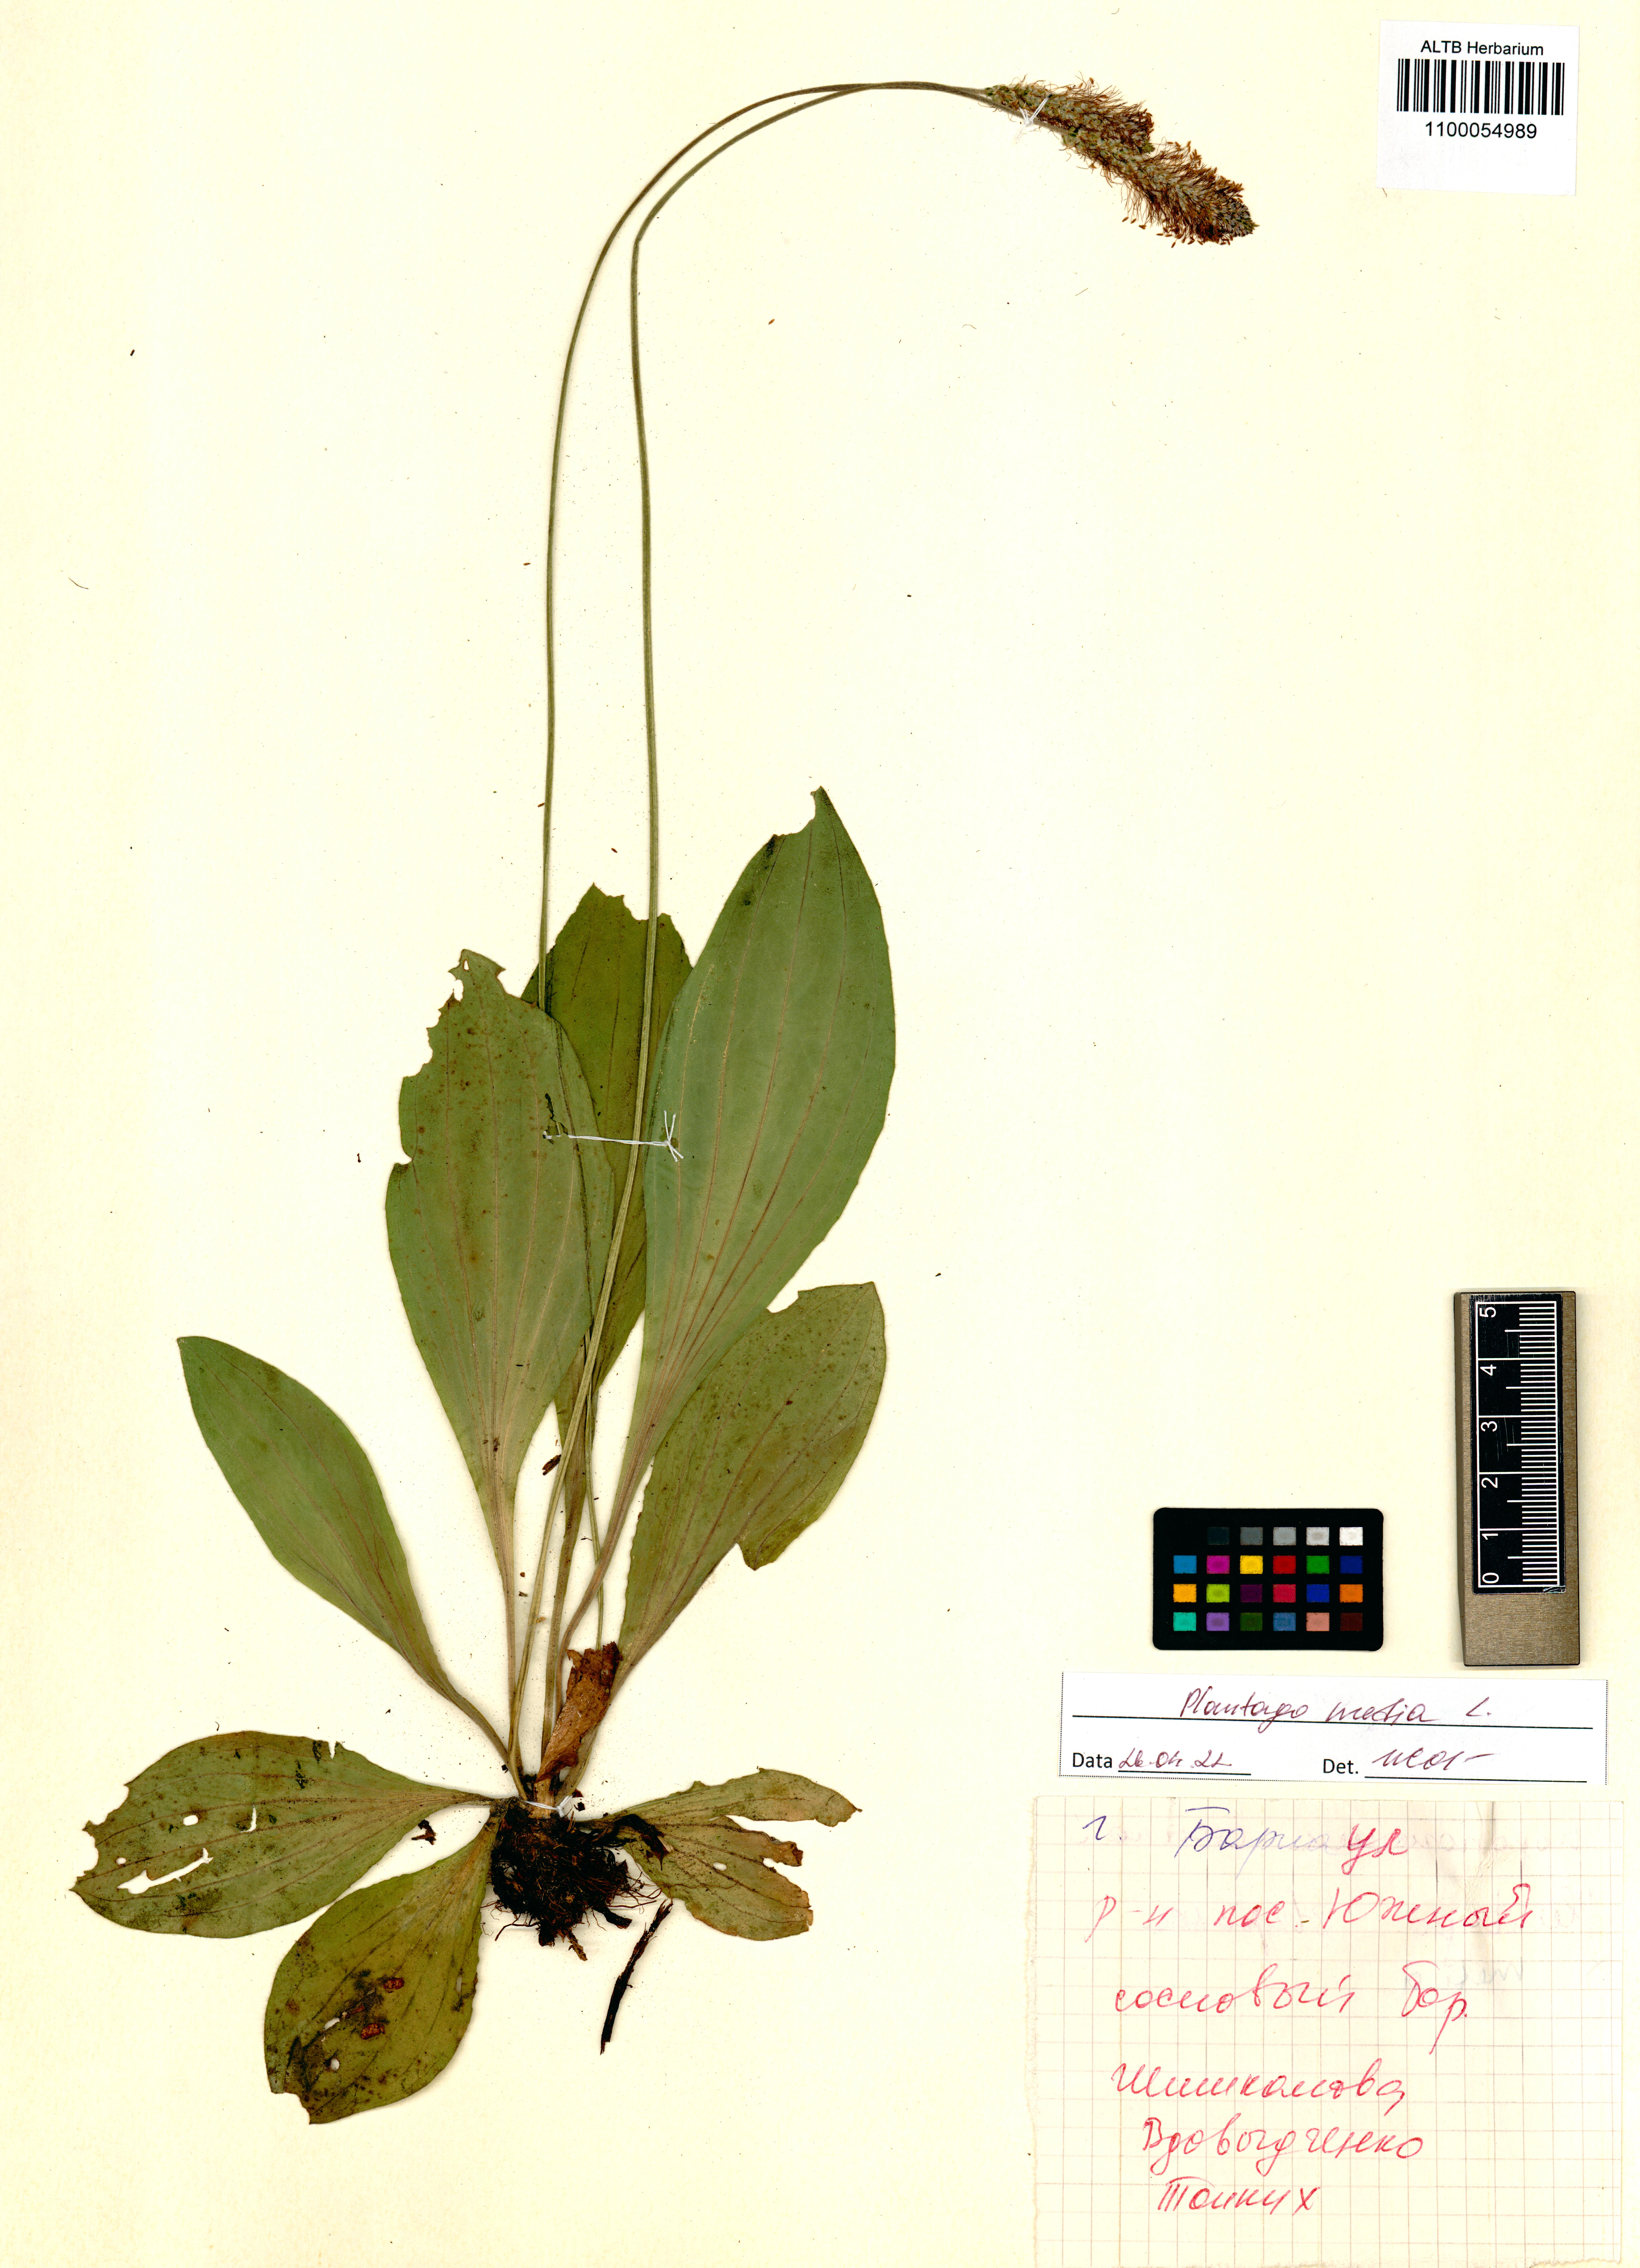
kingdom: Plantae
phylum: Tracheophyta
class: Magnoliopsida
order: Lamiales
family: Plantaginaceae
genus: Plantago
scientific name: Plantago media
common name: Hoary plantain
